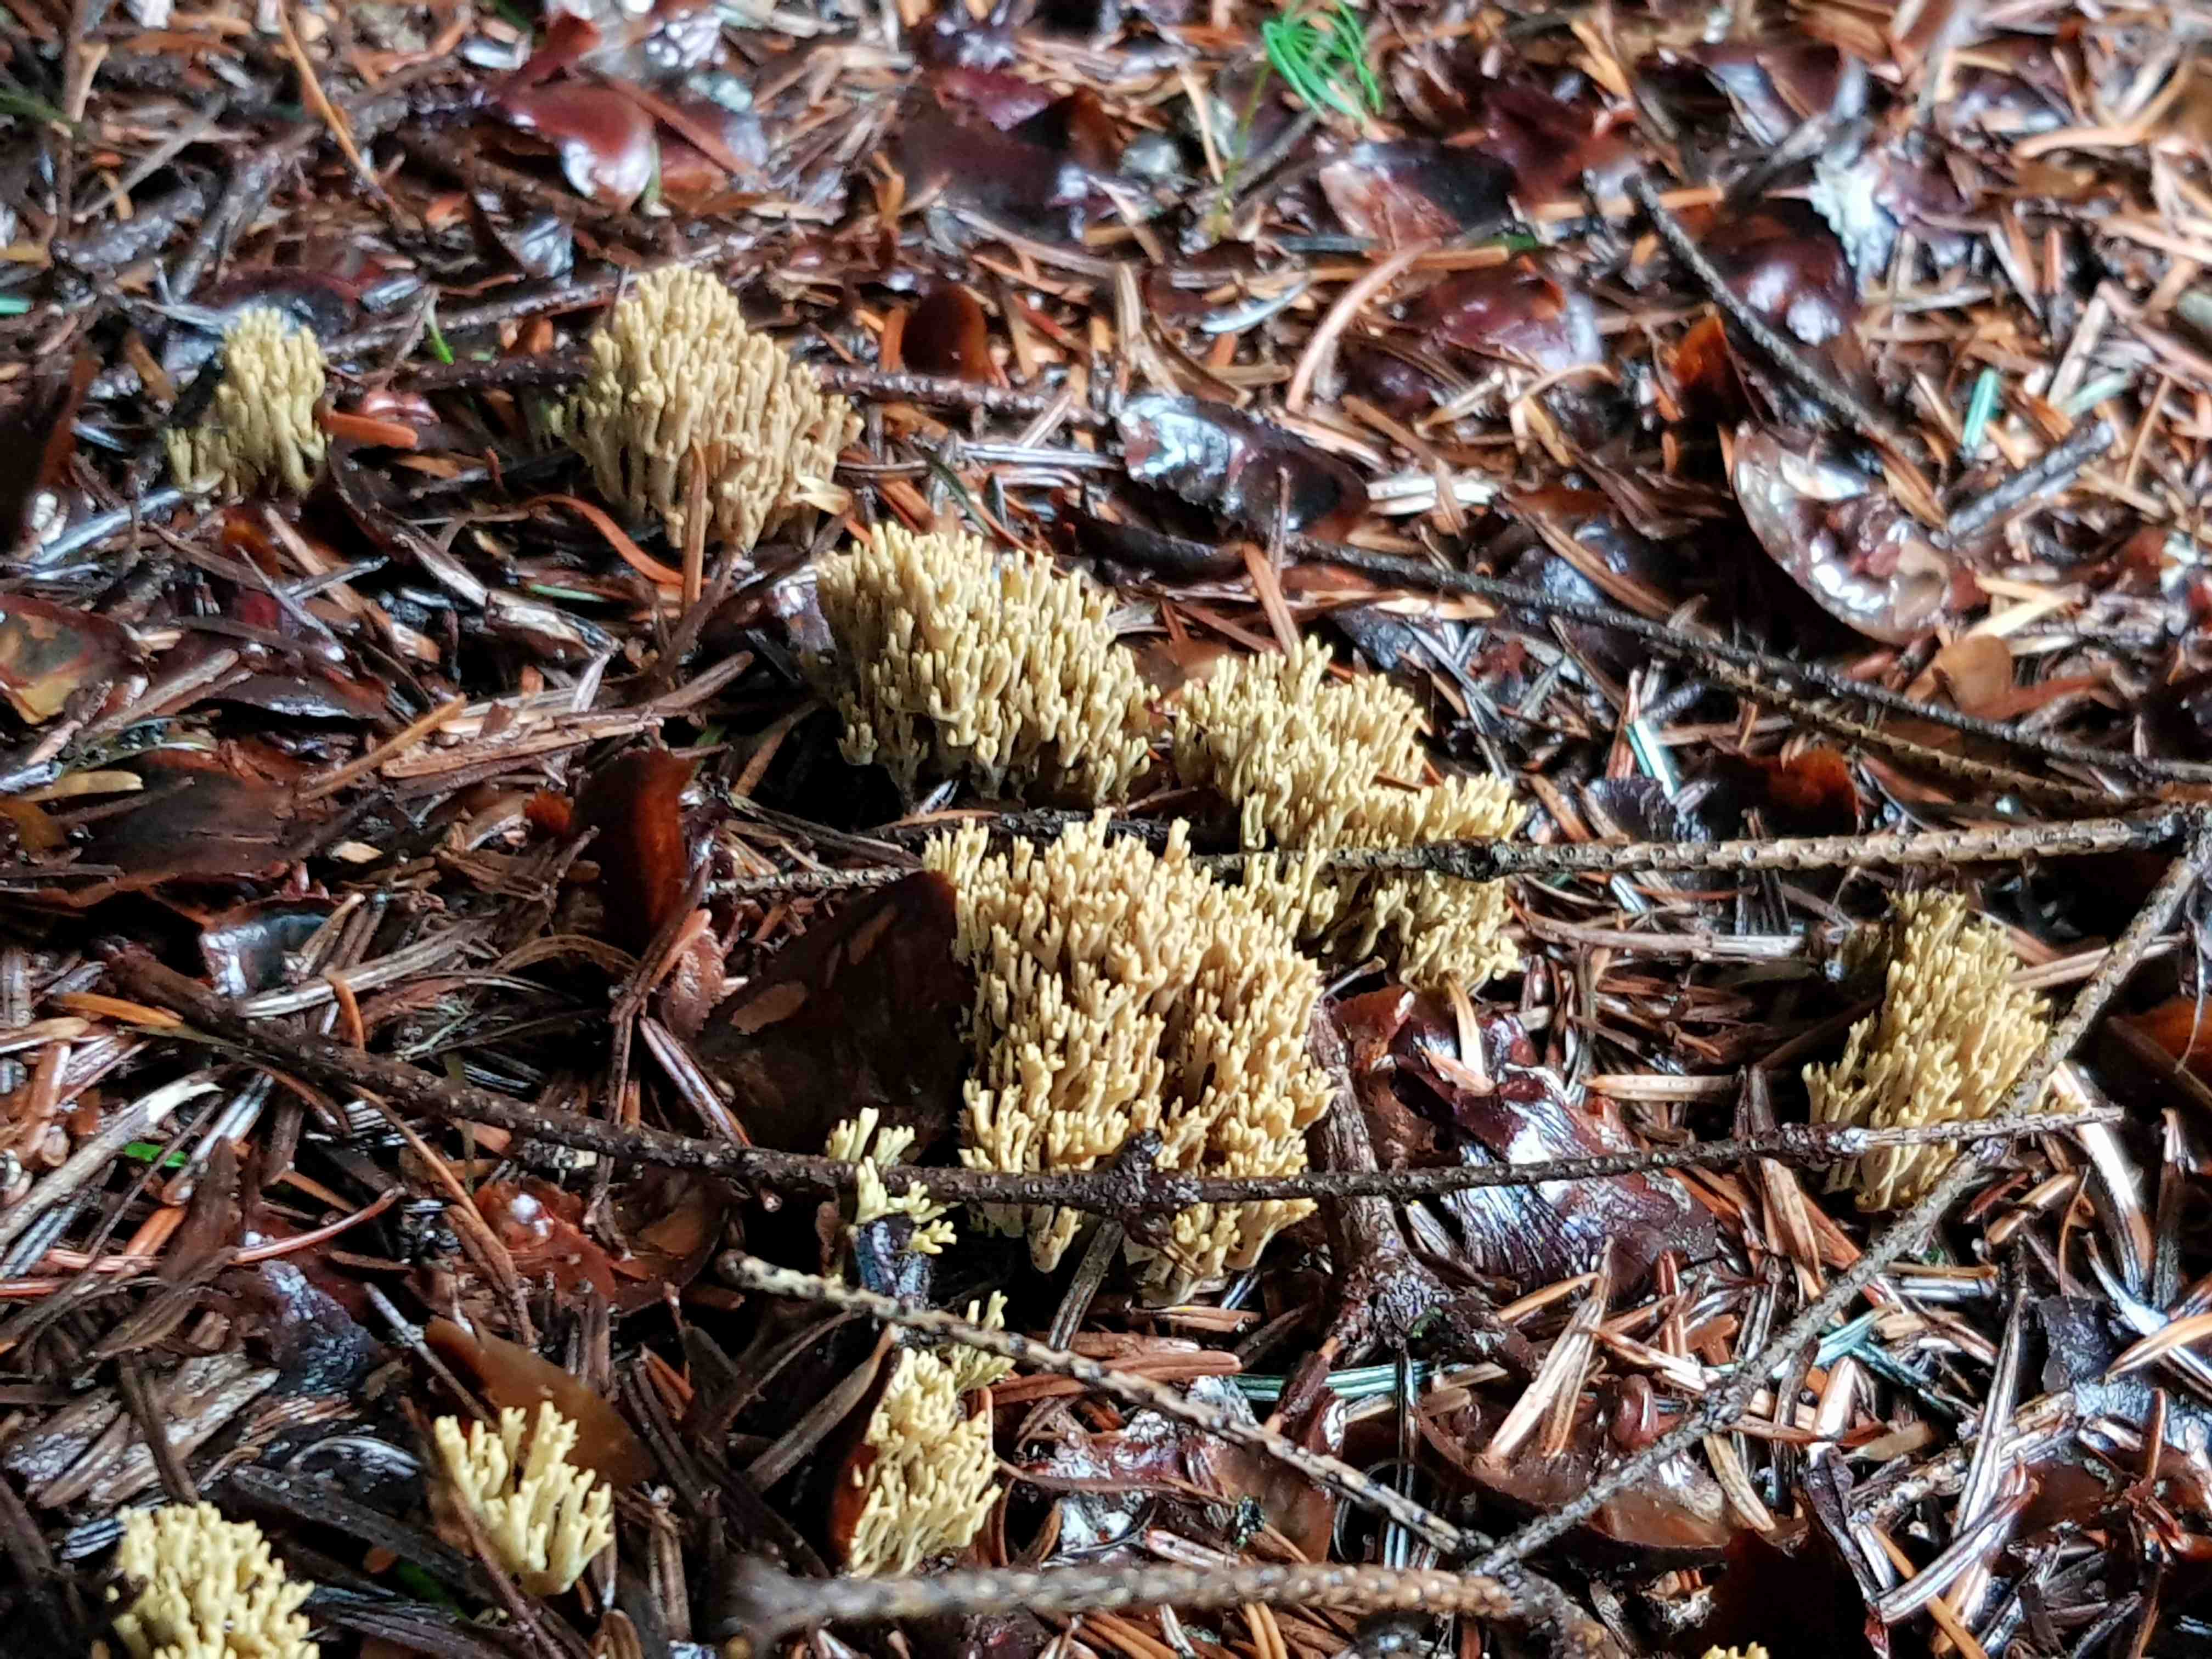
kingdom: Fungi
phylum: Basidiomycota
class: Agaricomycetes
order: Gomphales
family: Gomphaceae
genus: Phaeoclavulina
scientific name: Phaeoclavulina eumorpha
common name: gran-koralsvamp
